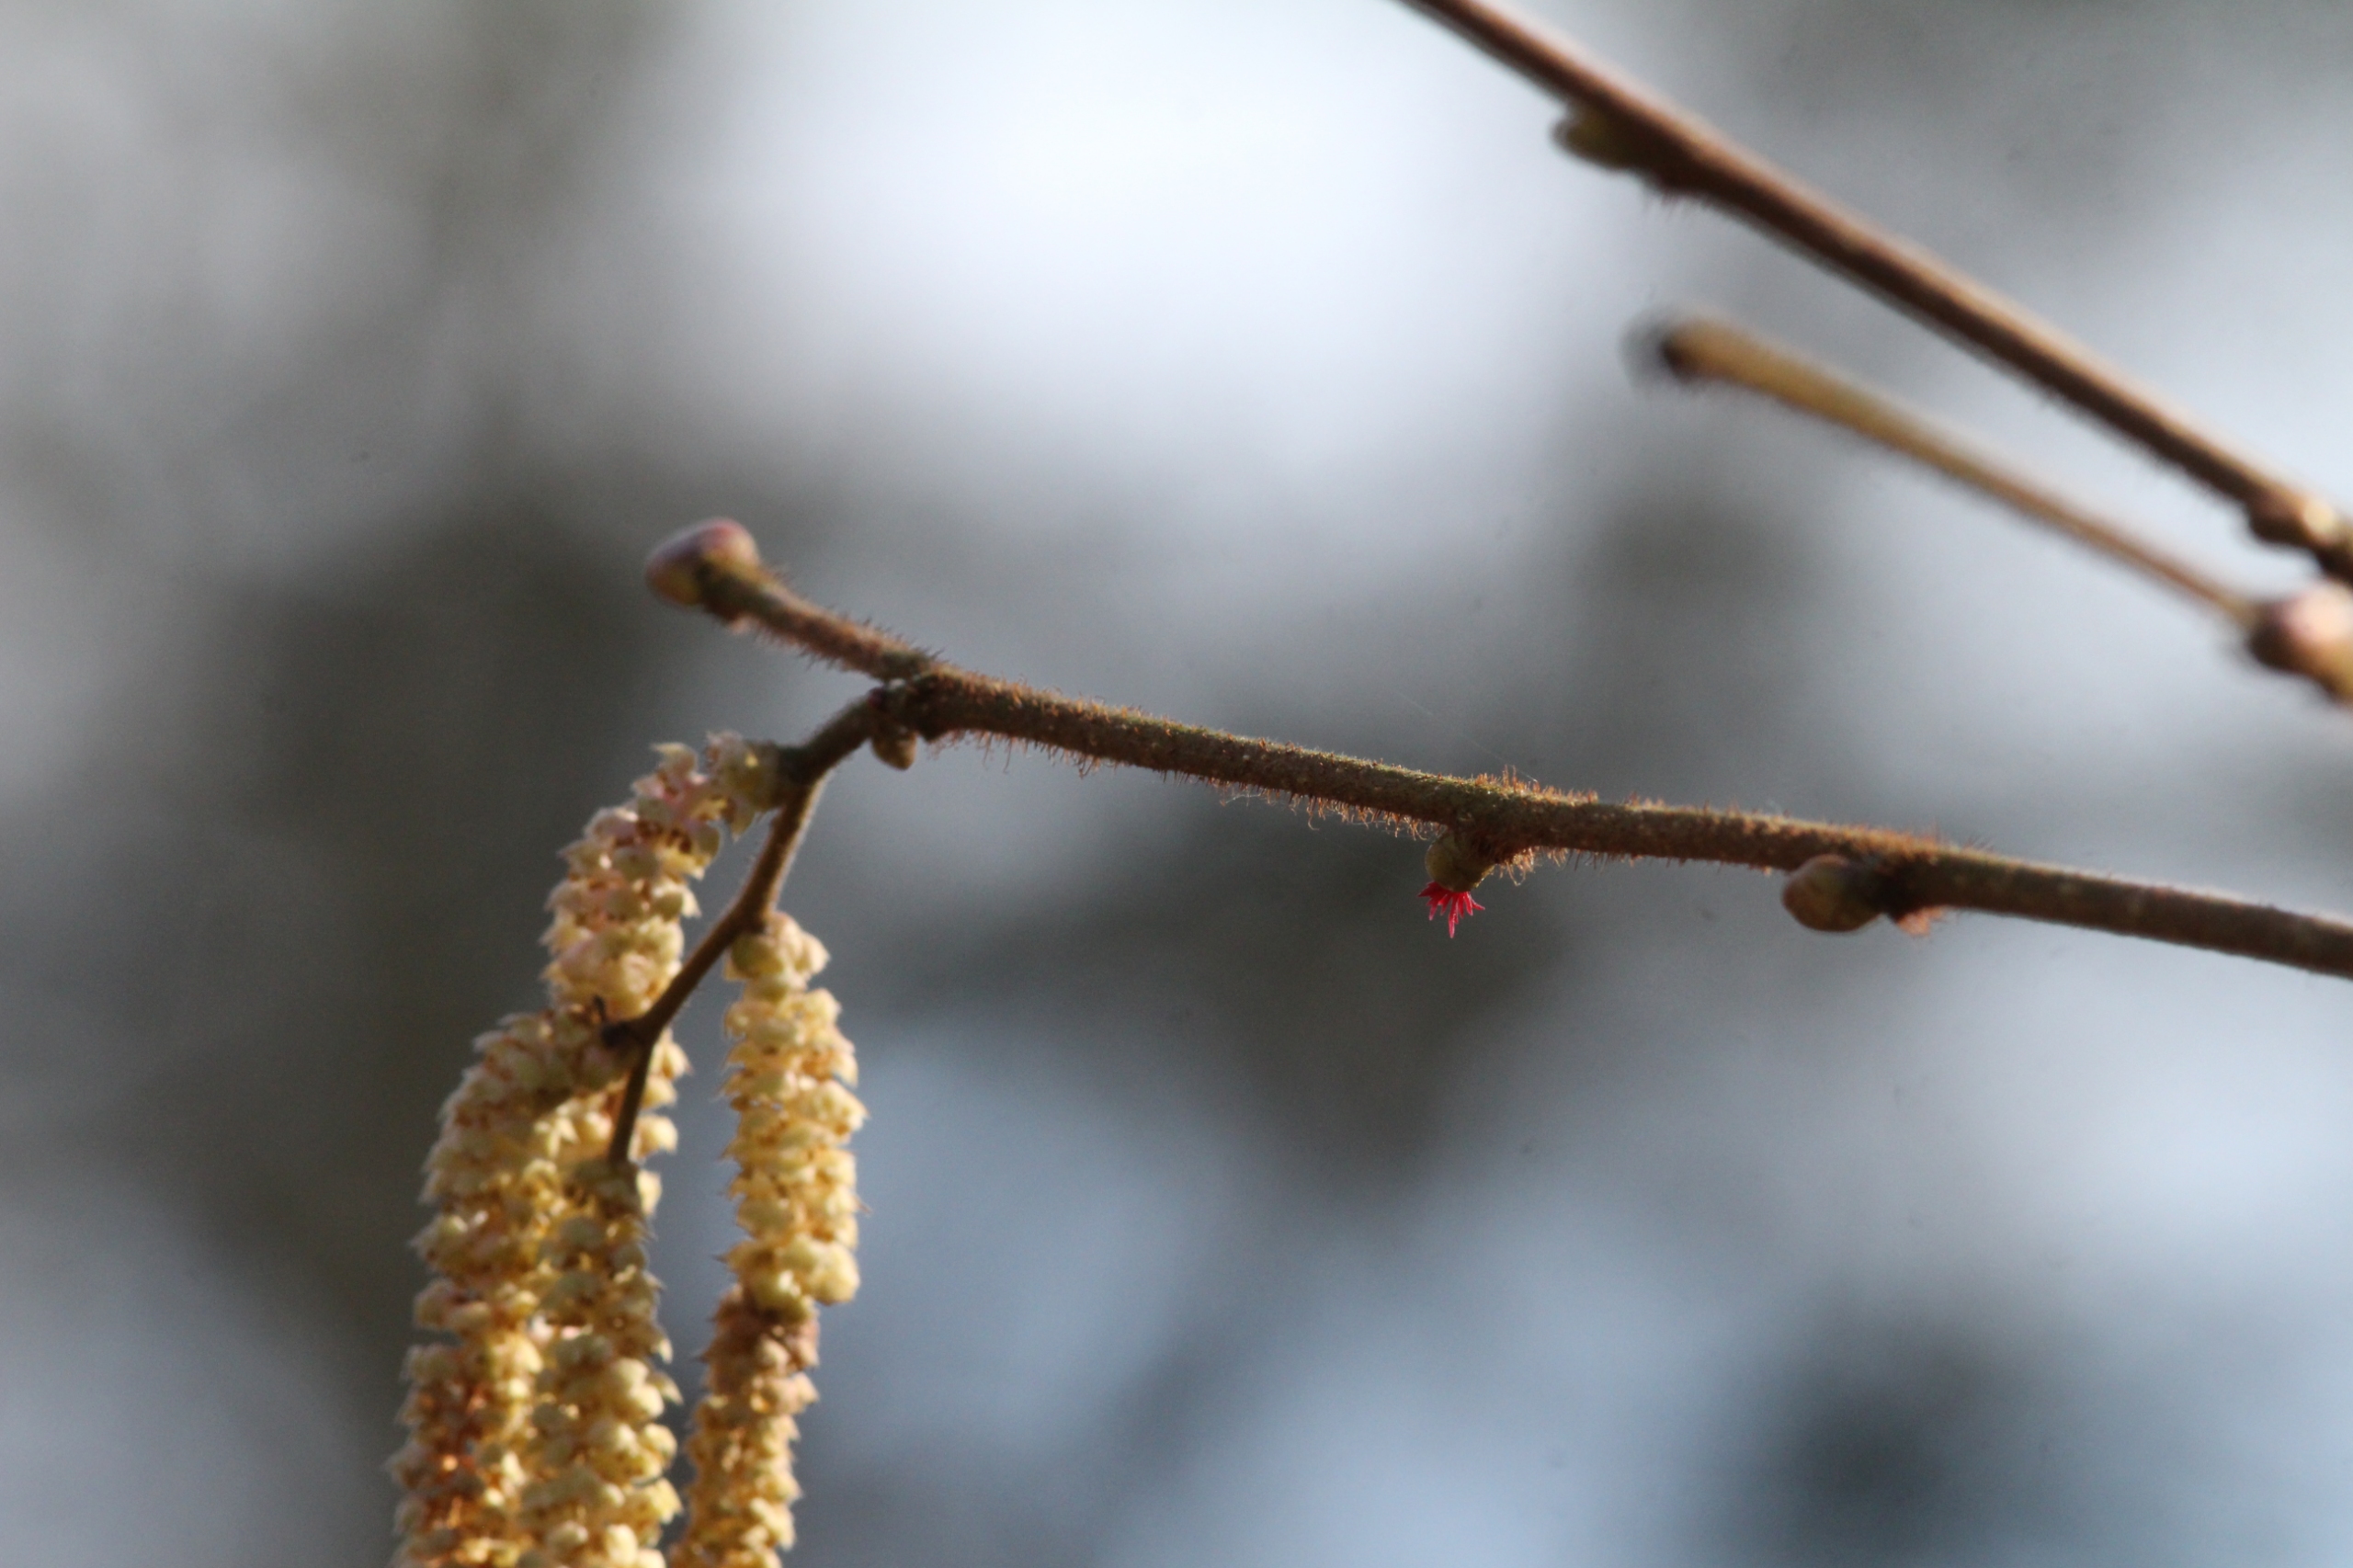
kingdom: Plantae
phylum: Tracheophyta
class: Magnoliopsida
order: Fagales
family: Betulaceae
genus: Corylus
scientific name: Corylus avellana
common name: Hassel
